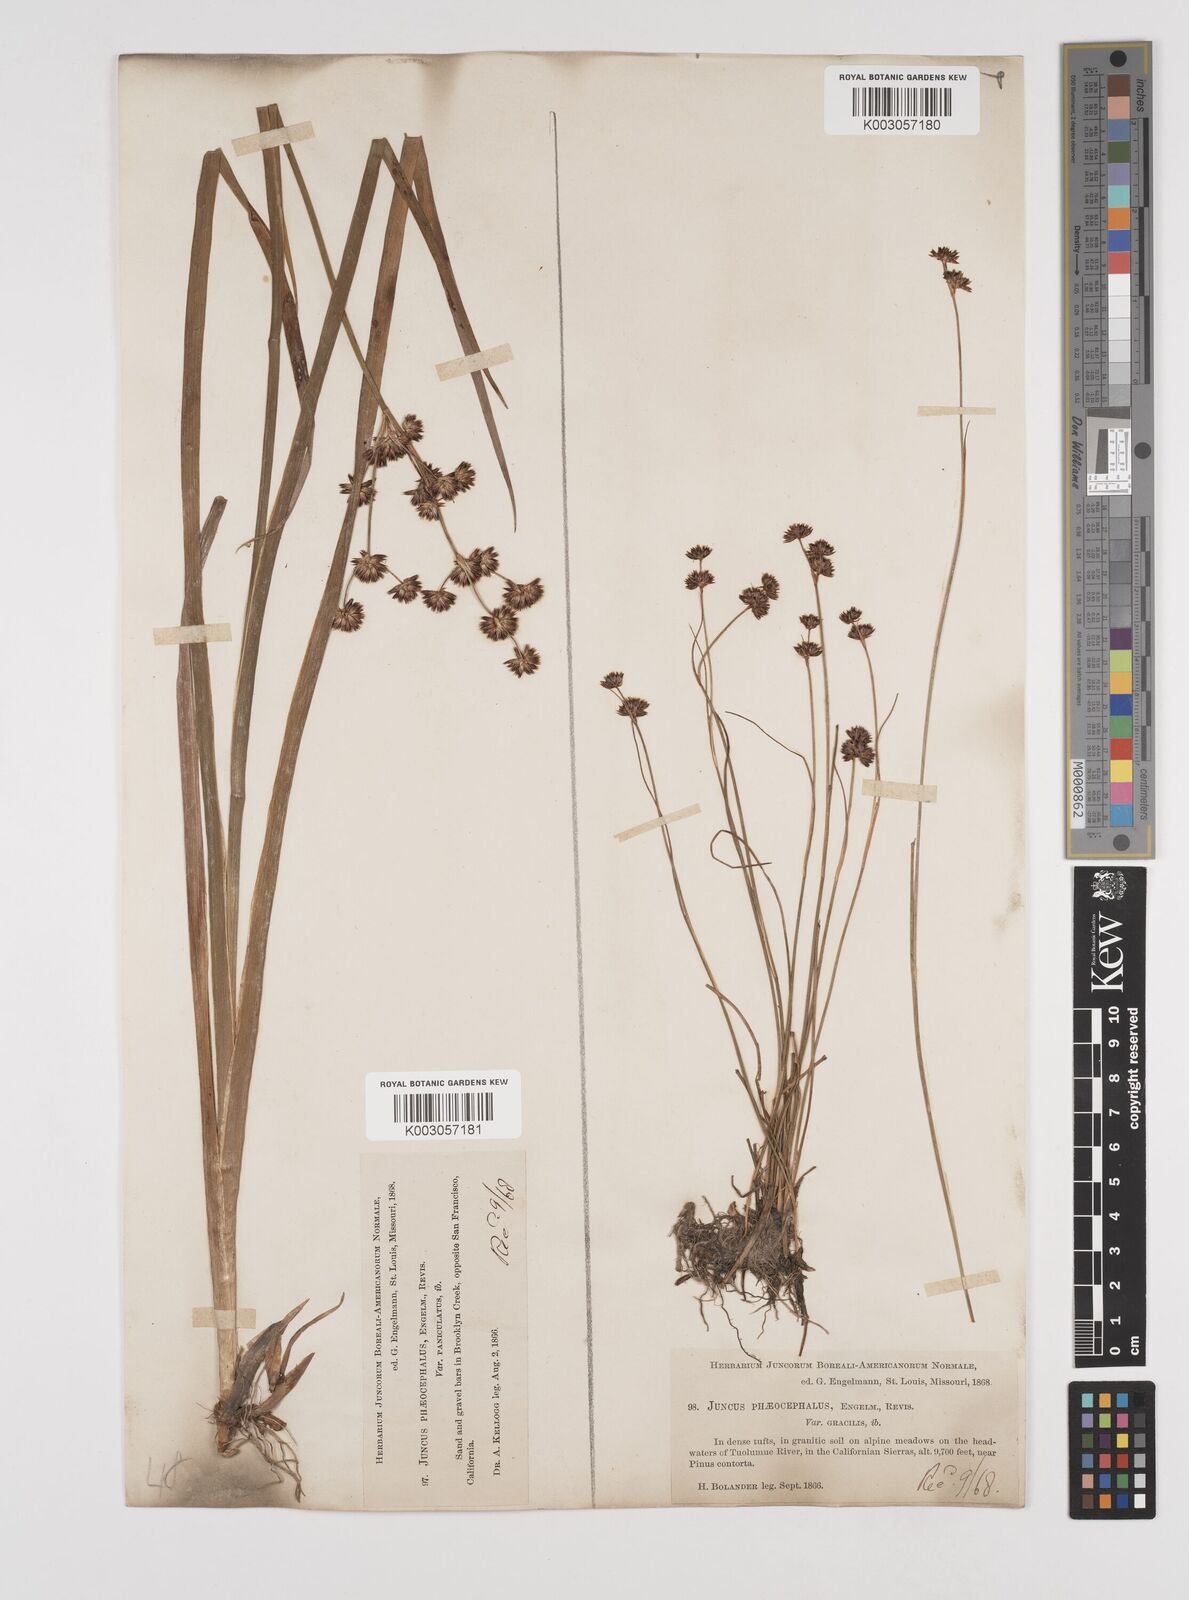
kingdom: Plantae
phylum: Tracheophyta
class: Liliopsida
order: Poales
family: Juncaceae
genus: Juncus
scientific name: Juncus phaeocephalus
